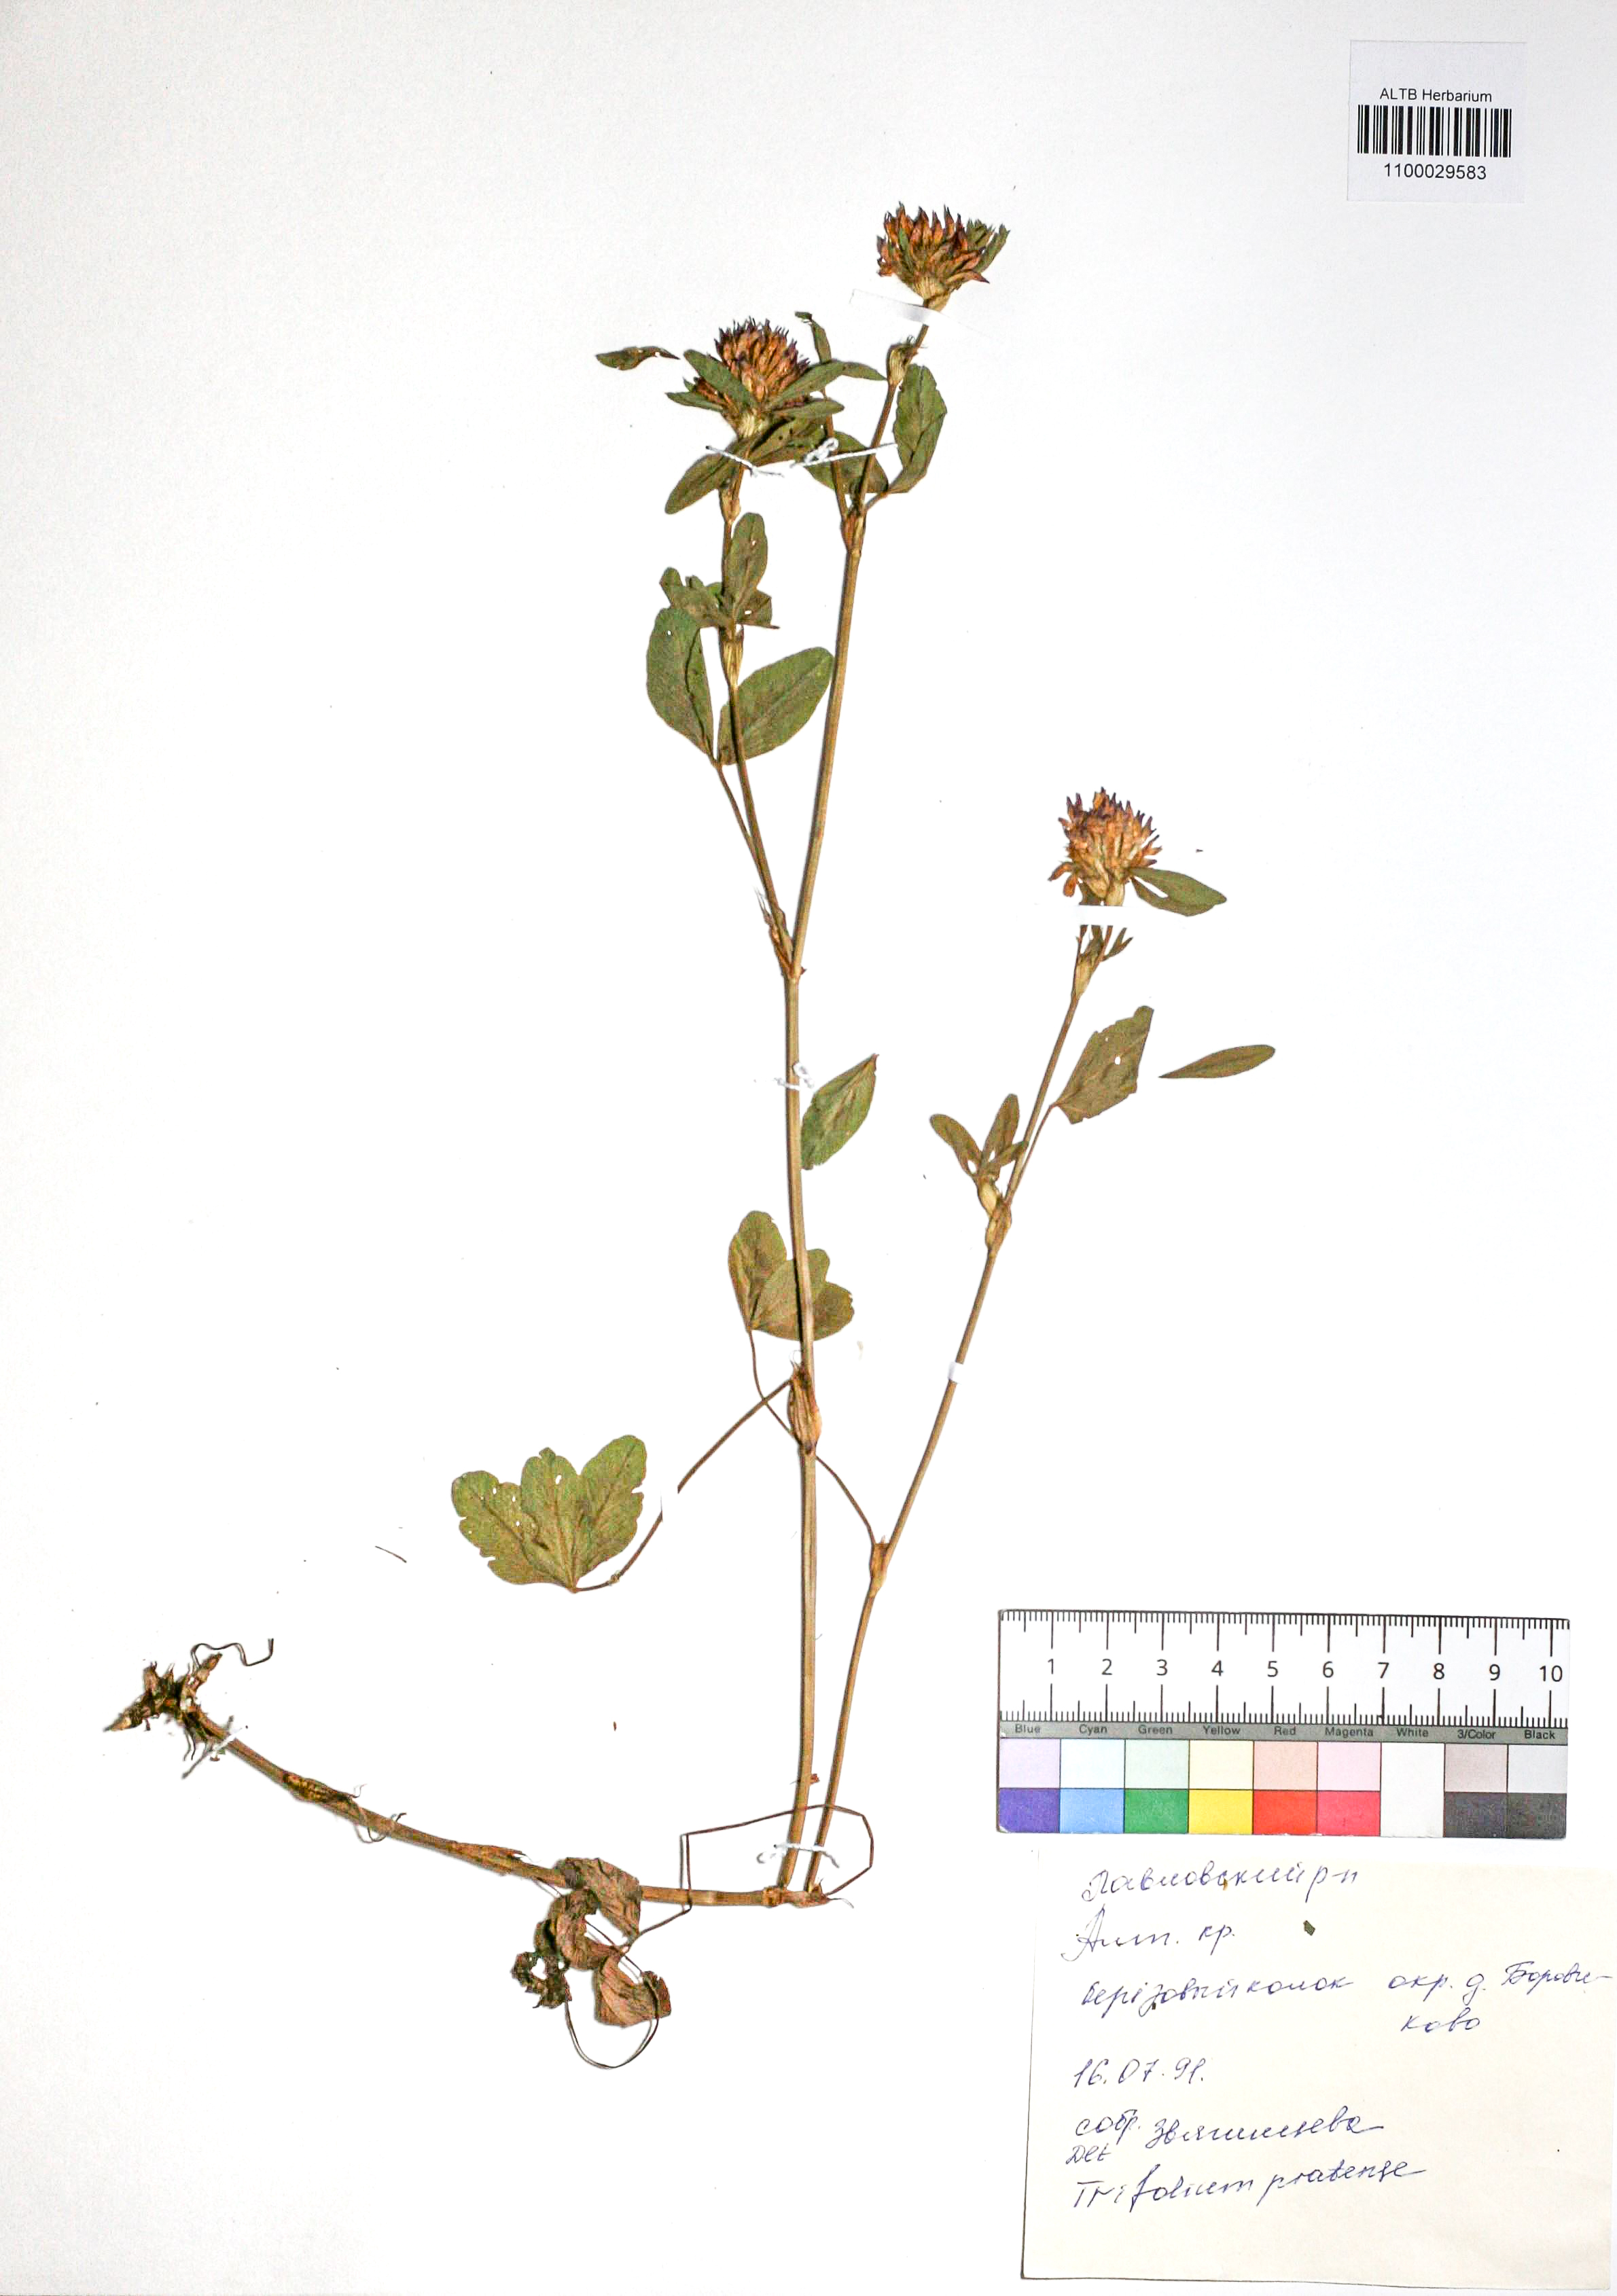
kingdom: Plantae
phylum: Tracheophyta
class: Magnoliopsida
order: Fabales
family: Fabaceae
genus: Trifolium
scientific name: Trifolium pratense
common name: Red clover
